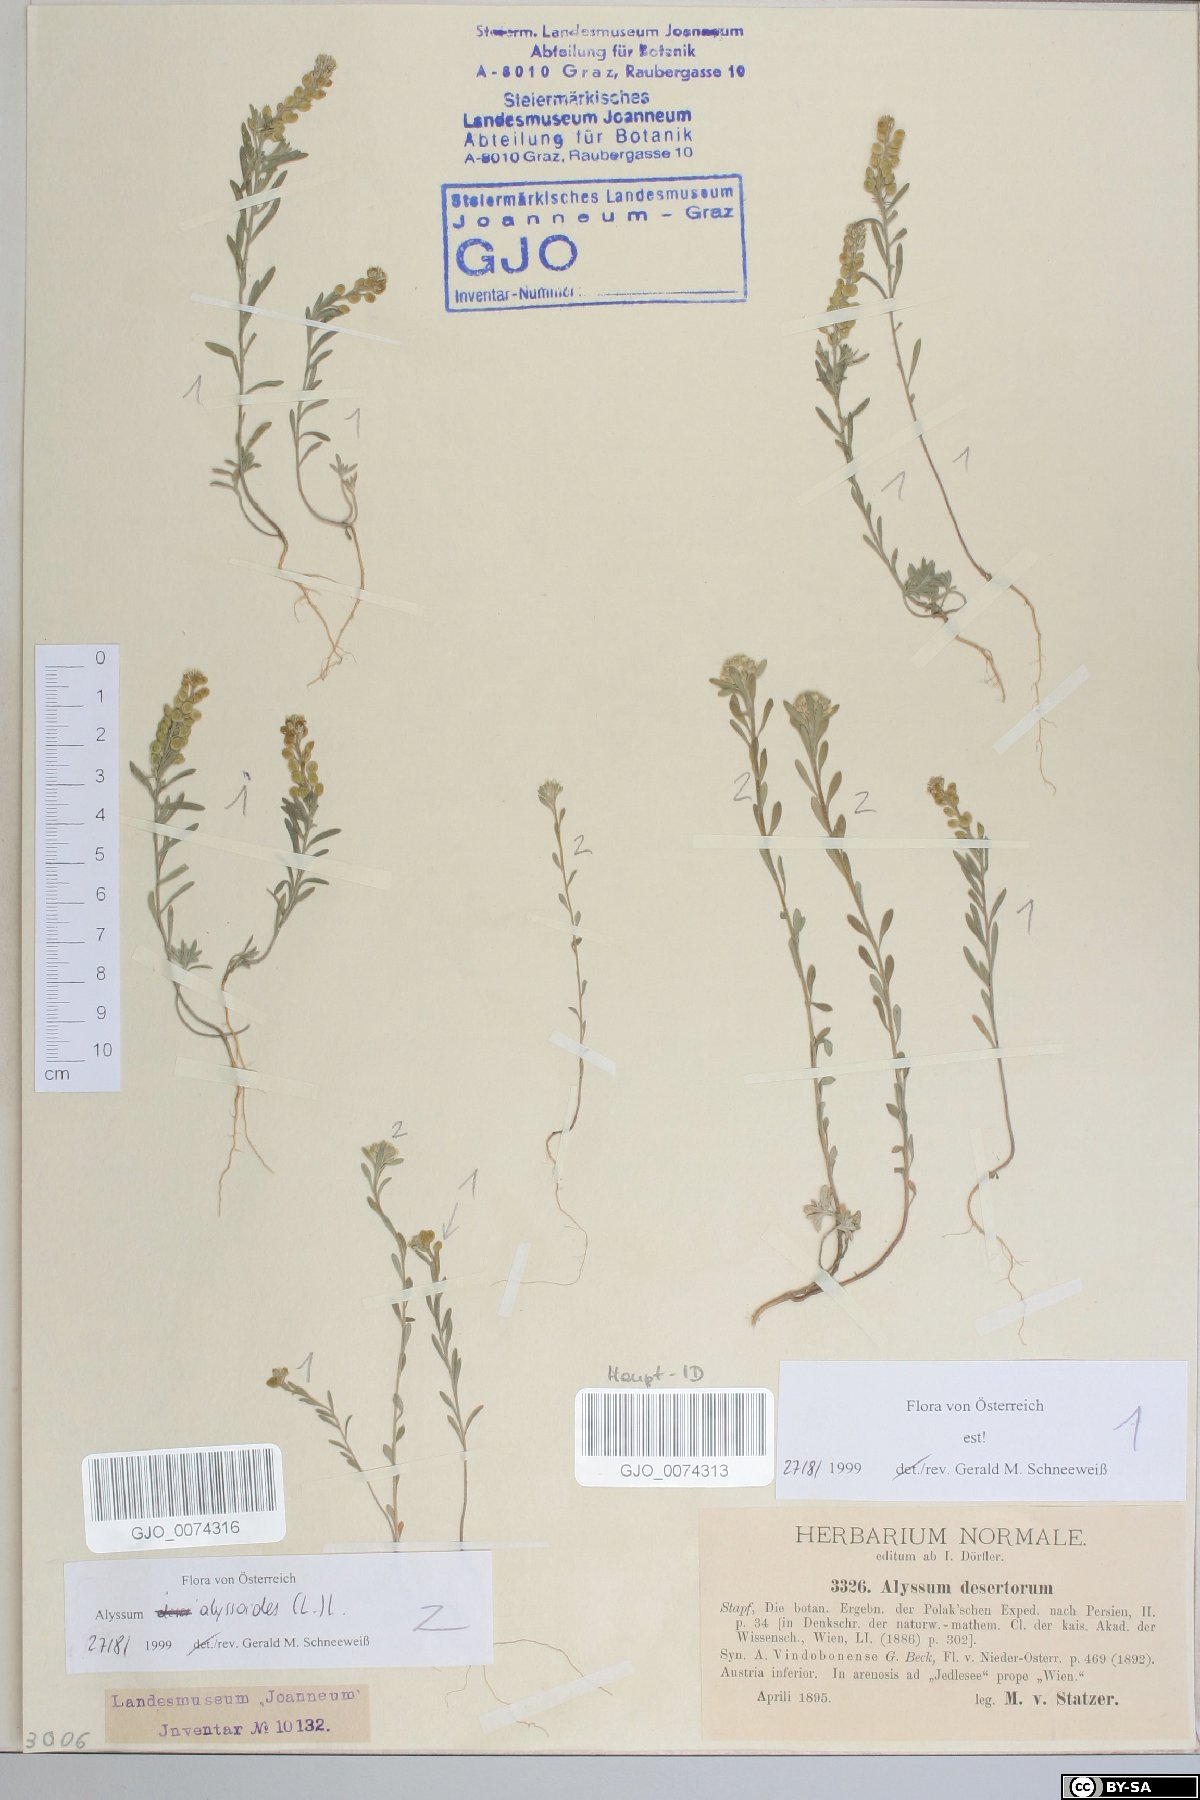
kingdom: Plantae
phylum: Tracheophyta
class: Magnoliopsida
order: Brassicales
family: Brassicaceae
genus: Alyssum
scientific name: Alyssum turkestanicum
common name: Desert alyssum
